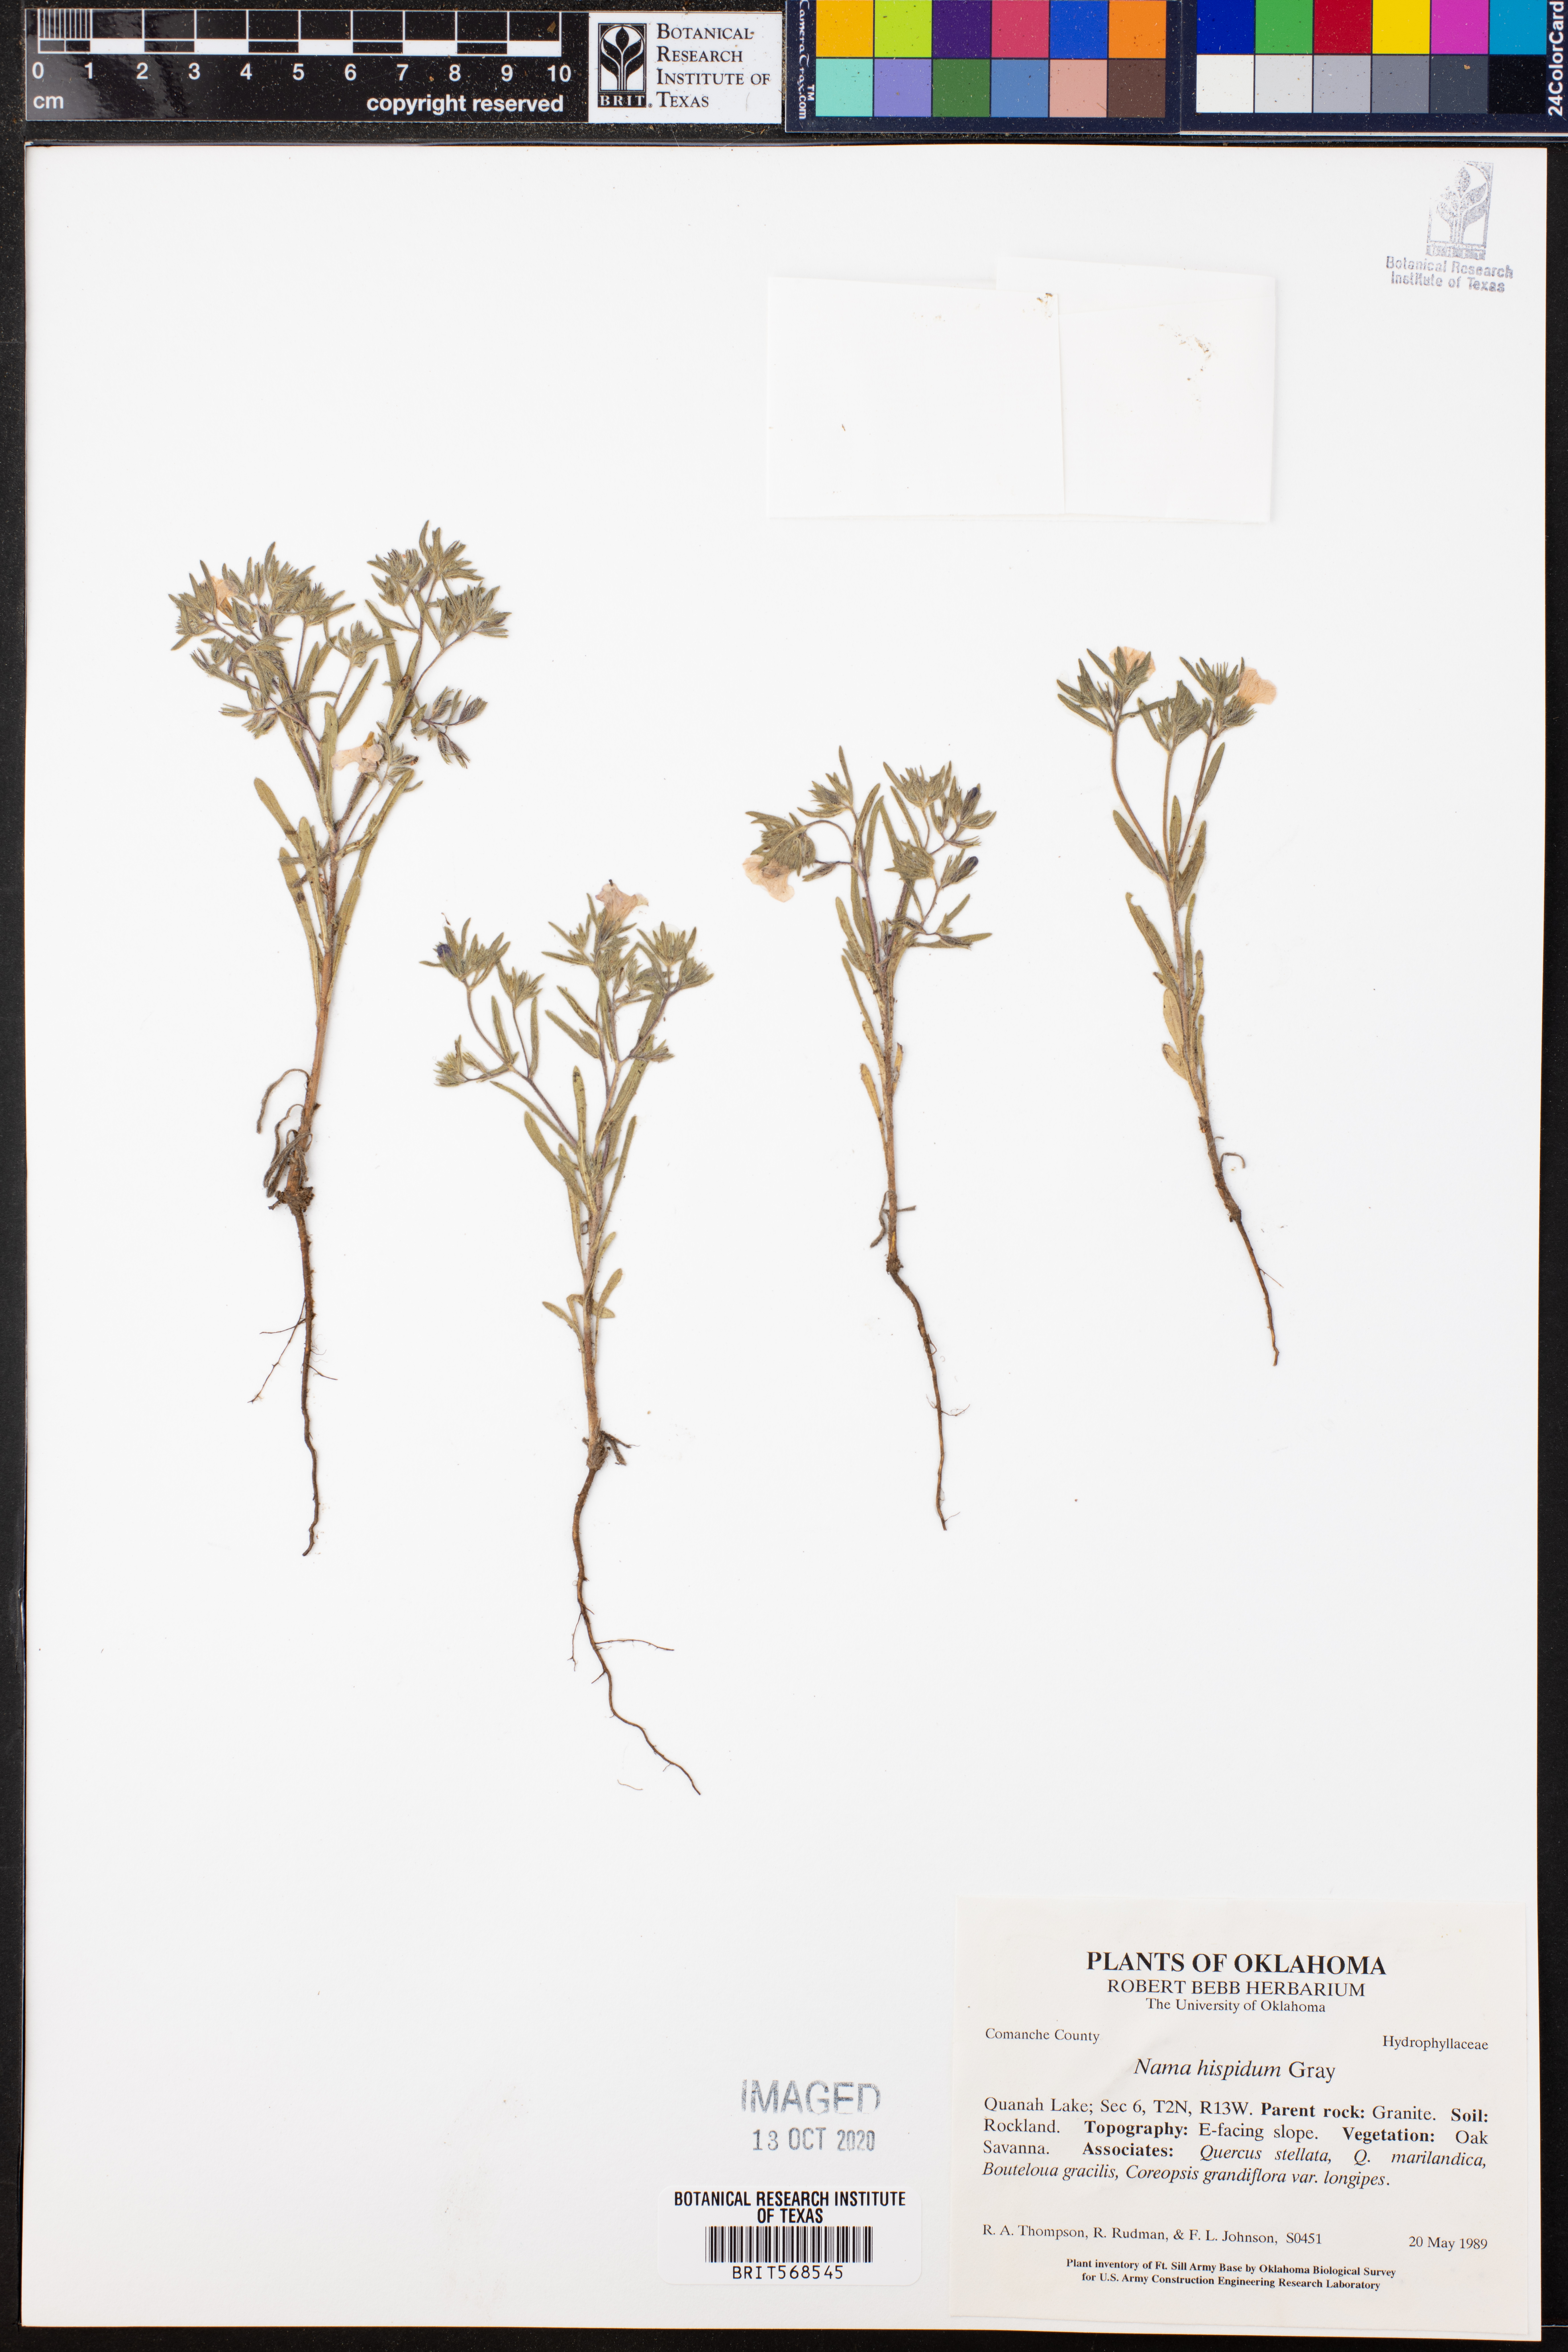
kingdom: Plantae
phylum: Tracheophyta
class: Magnoliopsida
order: Boraginales
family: Namaceae
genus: Nama
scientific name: Nama hispida
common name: Bristly nama
